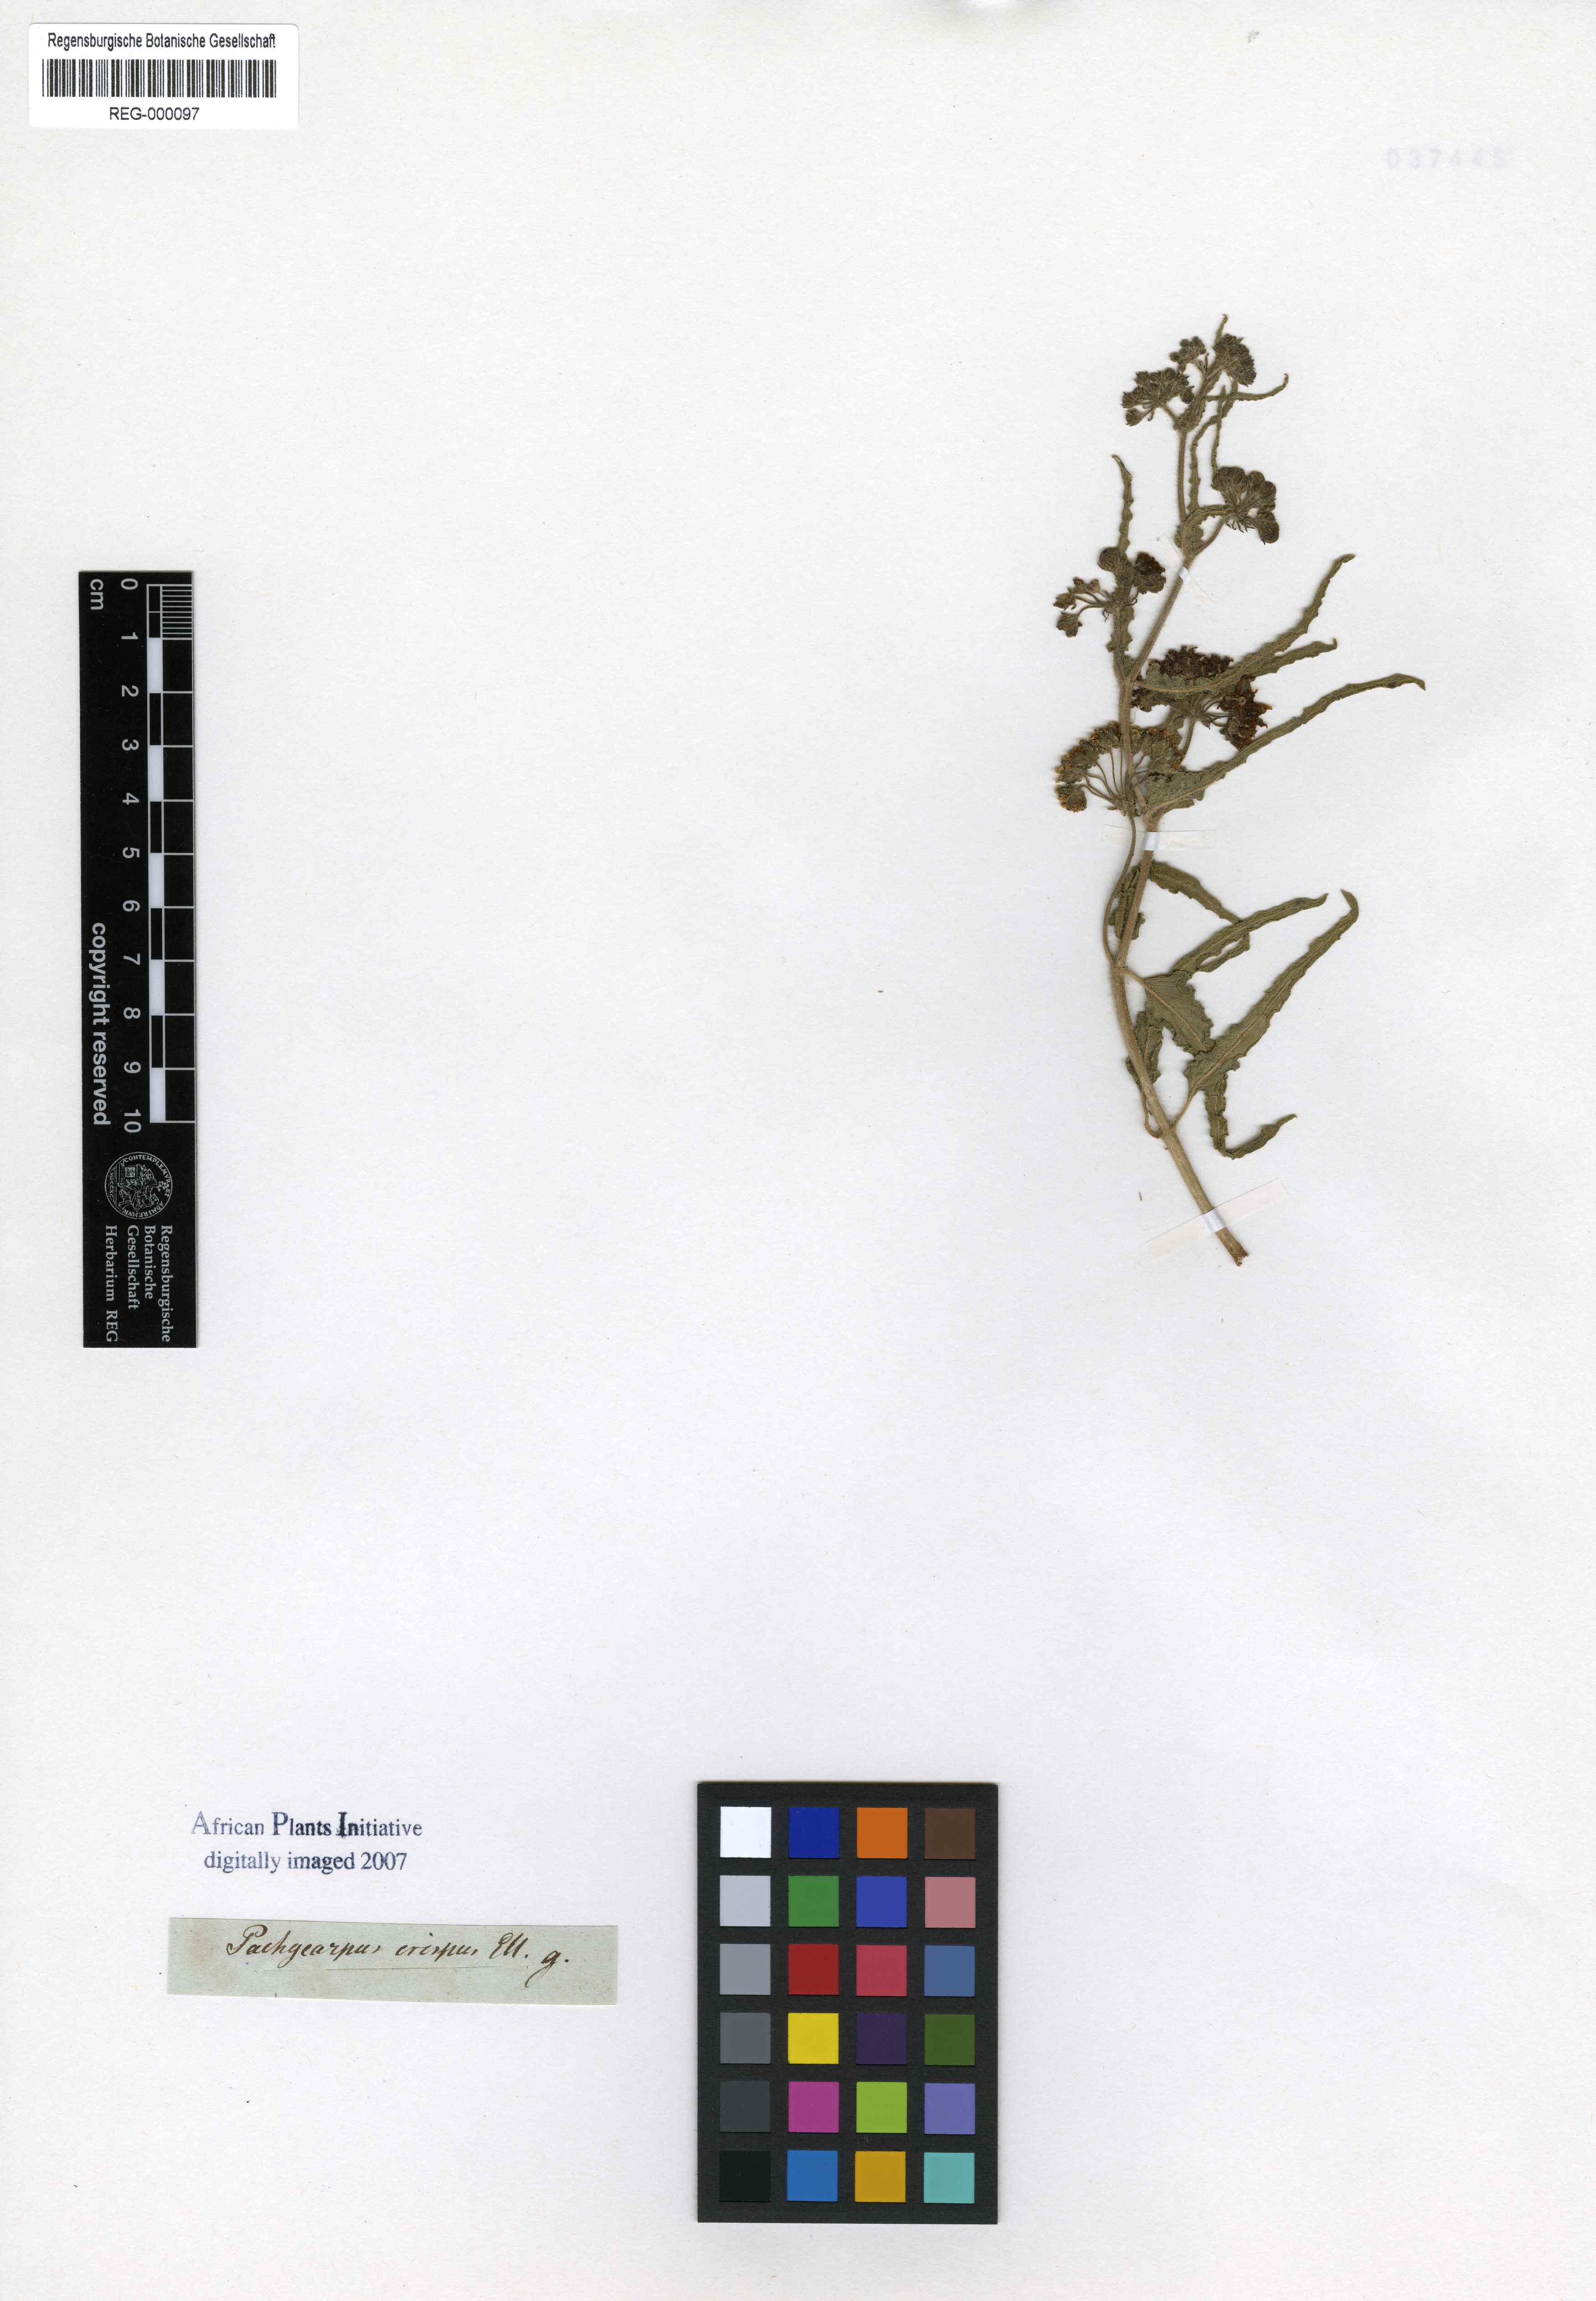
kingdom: Plantae
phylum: Tracheophyta
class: Magnoliopsida
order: Gentianales
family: Apocynaceae
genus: Asclepias
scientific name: Asclepias crispa
